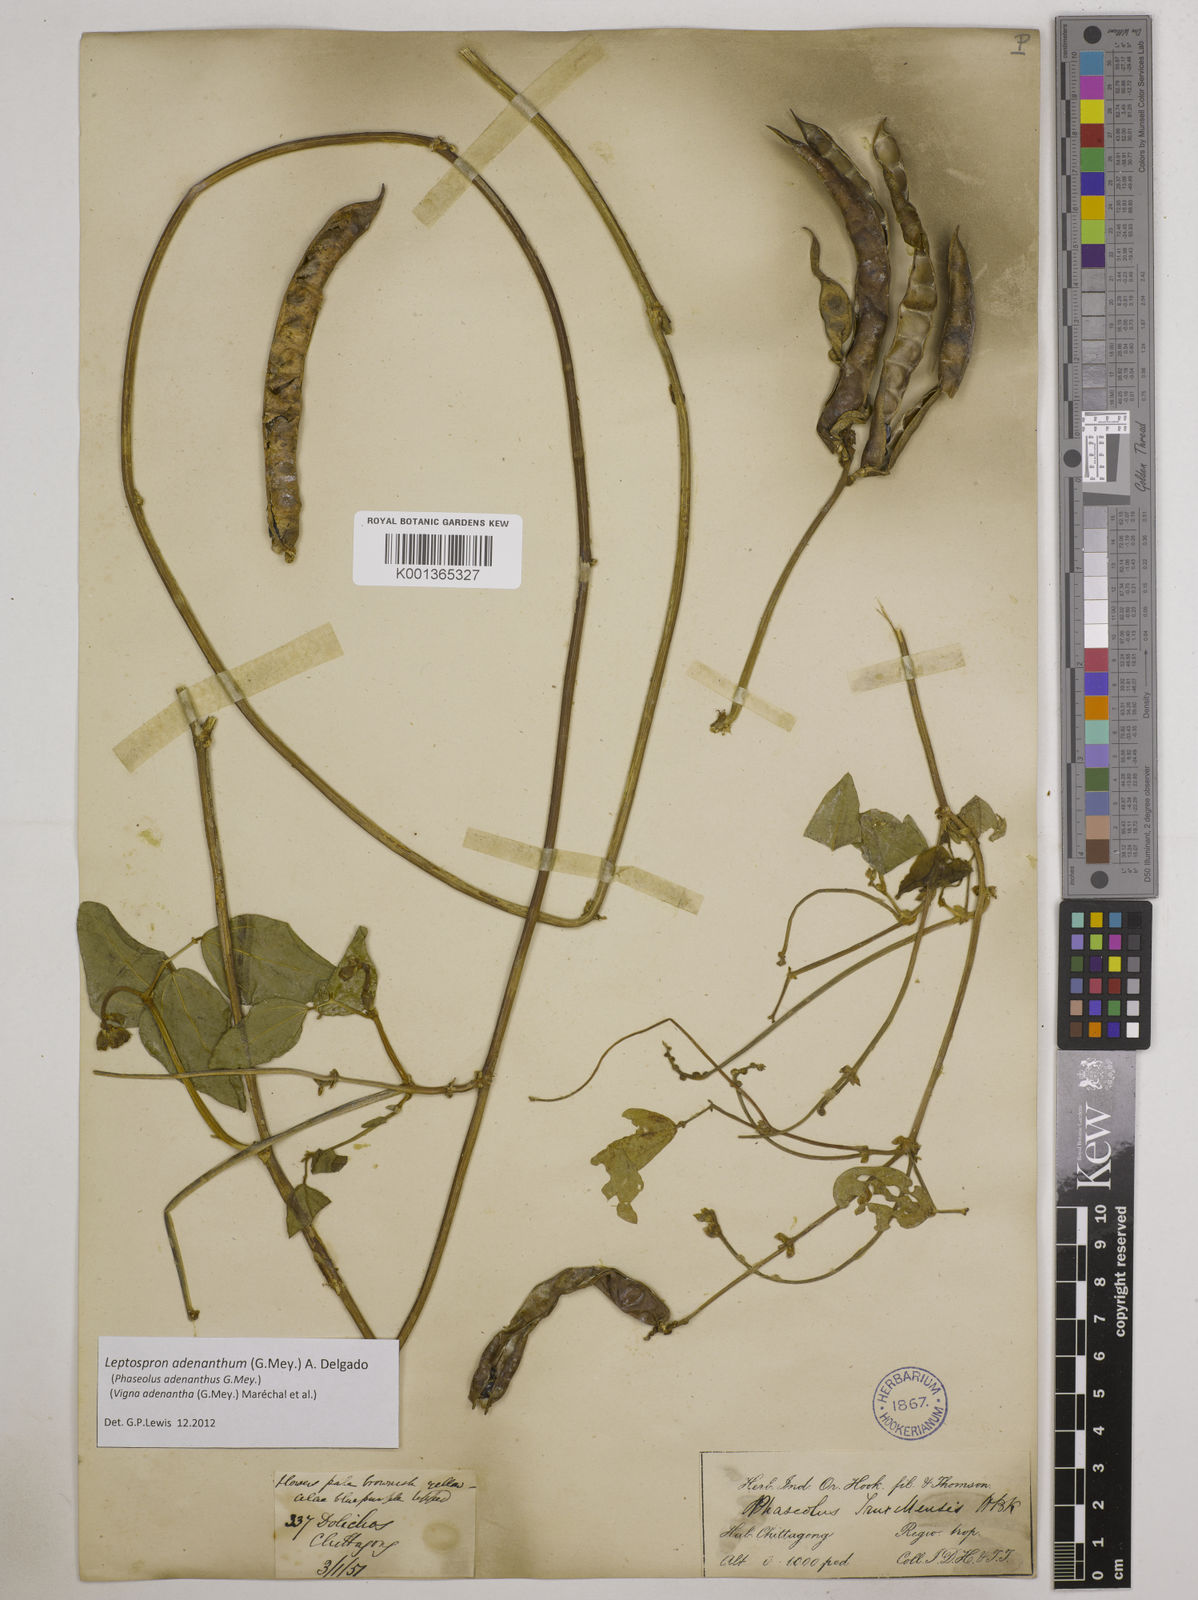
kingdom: Plantae
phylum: Tracheophyta
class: Magnoliopsida
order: Fabales
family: Fabaceae
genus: Leptospron
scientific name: Leptospron adenanthum
